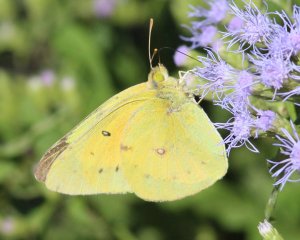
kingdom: Animalia
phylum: Arthropoda
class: Insecta
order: Lepidoptera
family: Pieridae
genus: Colias
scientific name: Colias eurytheme
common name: Orange Sulphur
